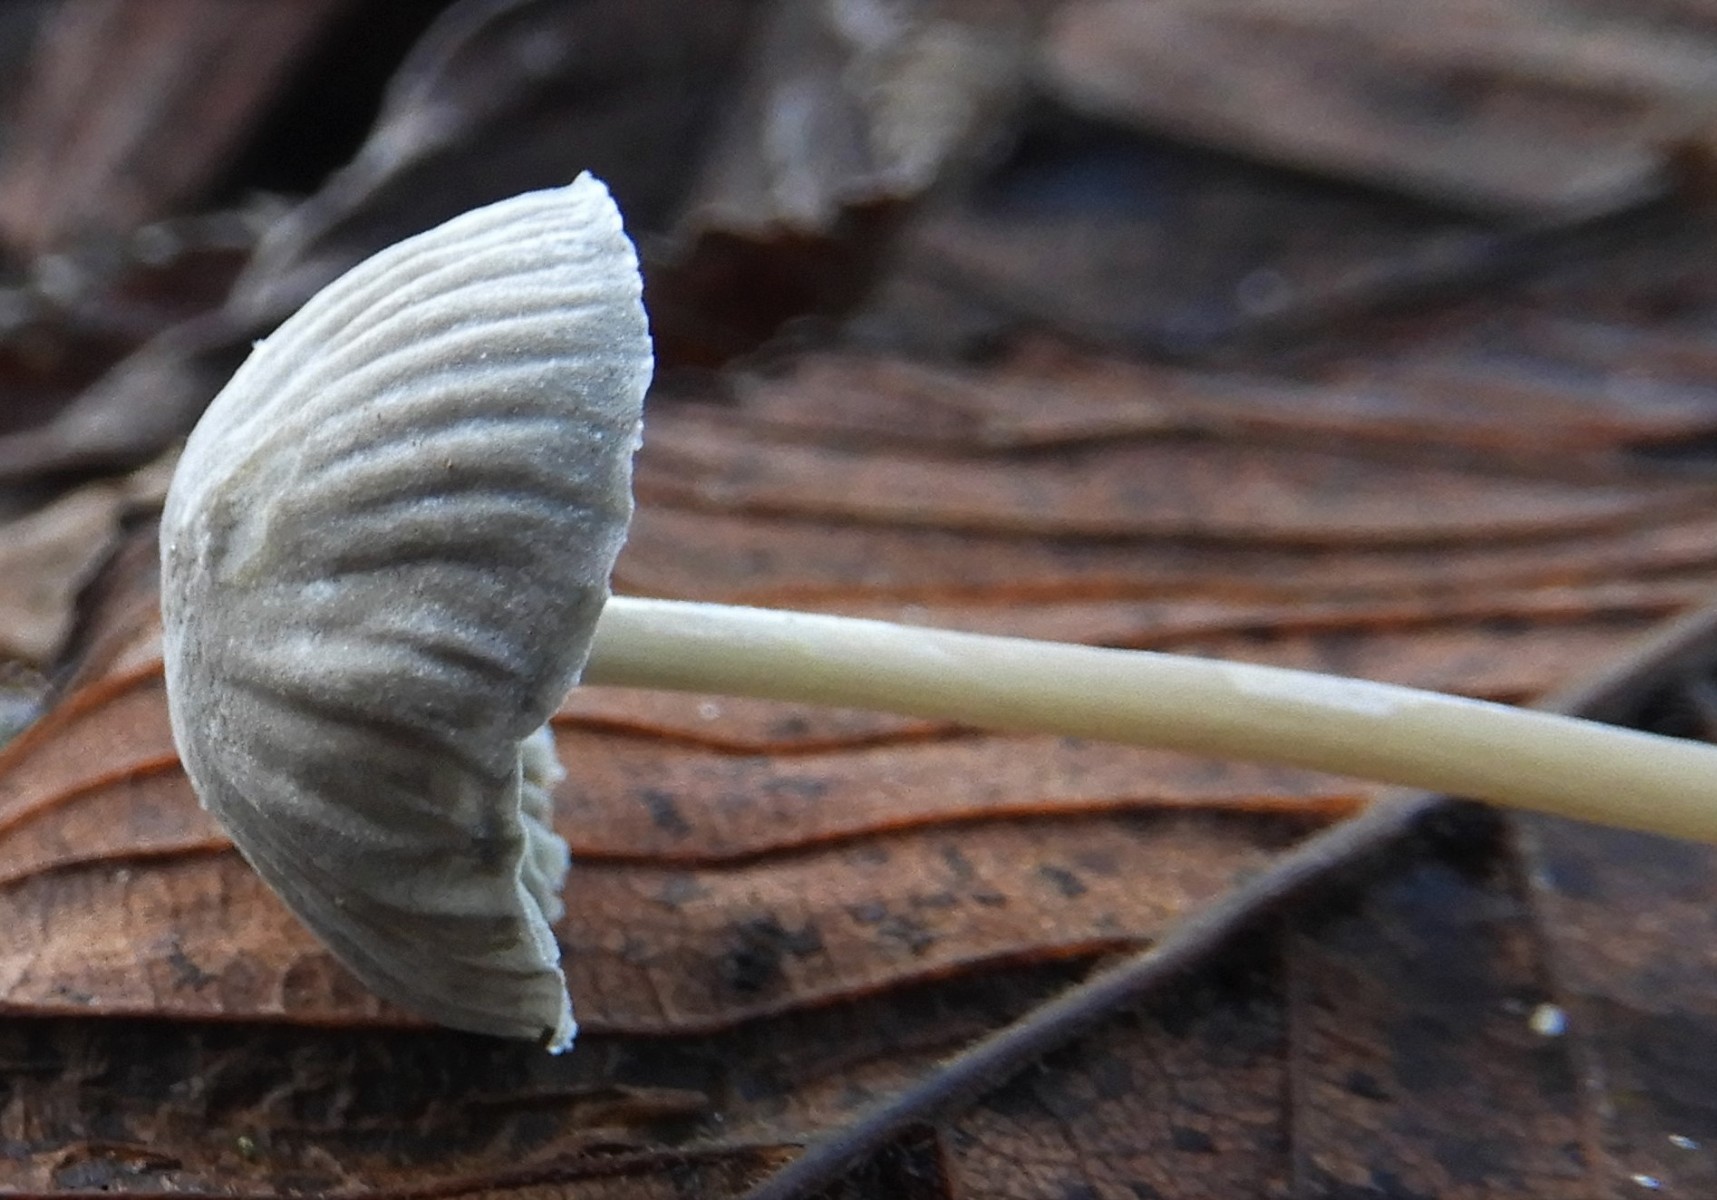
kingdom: Fungi
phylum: Basidiomycota
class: Agaricomycetes
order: Agaricales
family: Mycenaceae
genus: Mycena
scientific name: Mycena
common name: huesvamp
